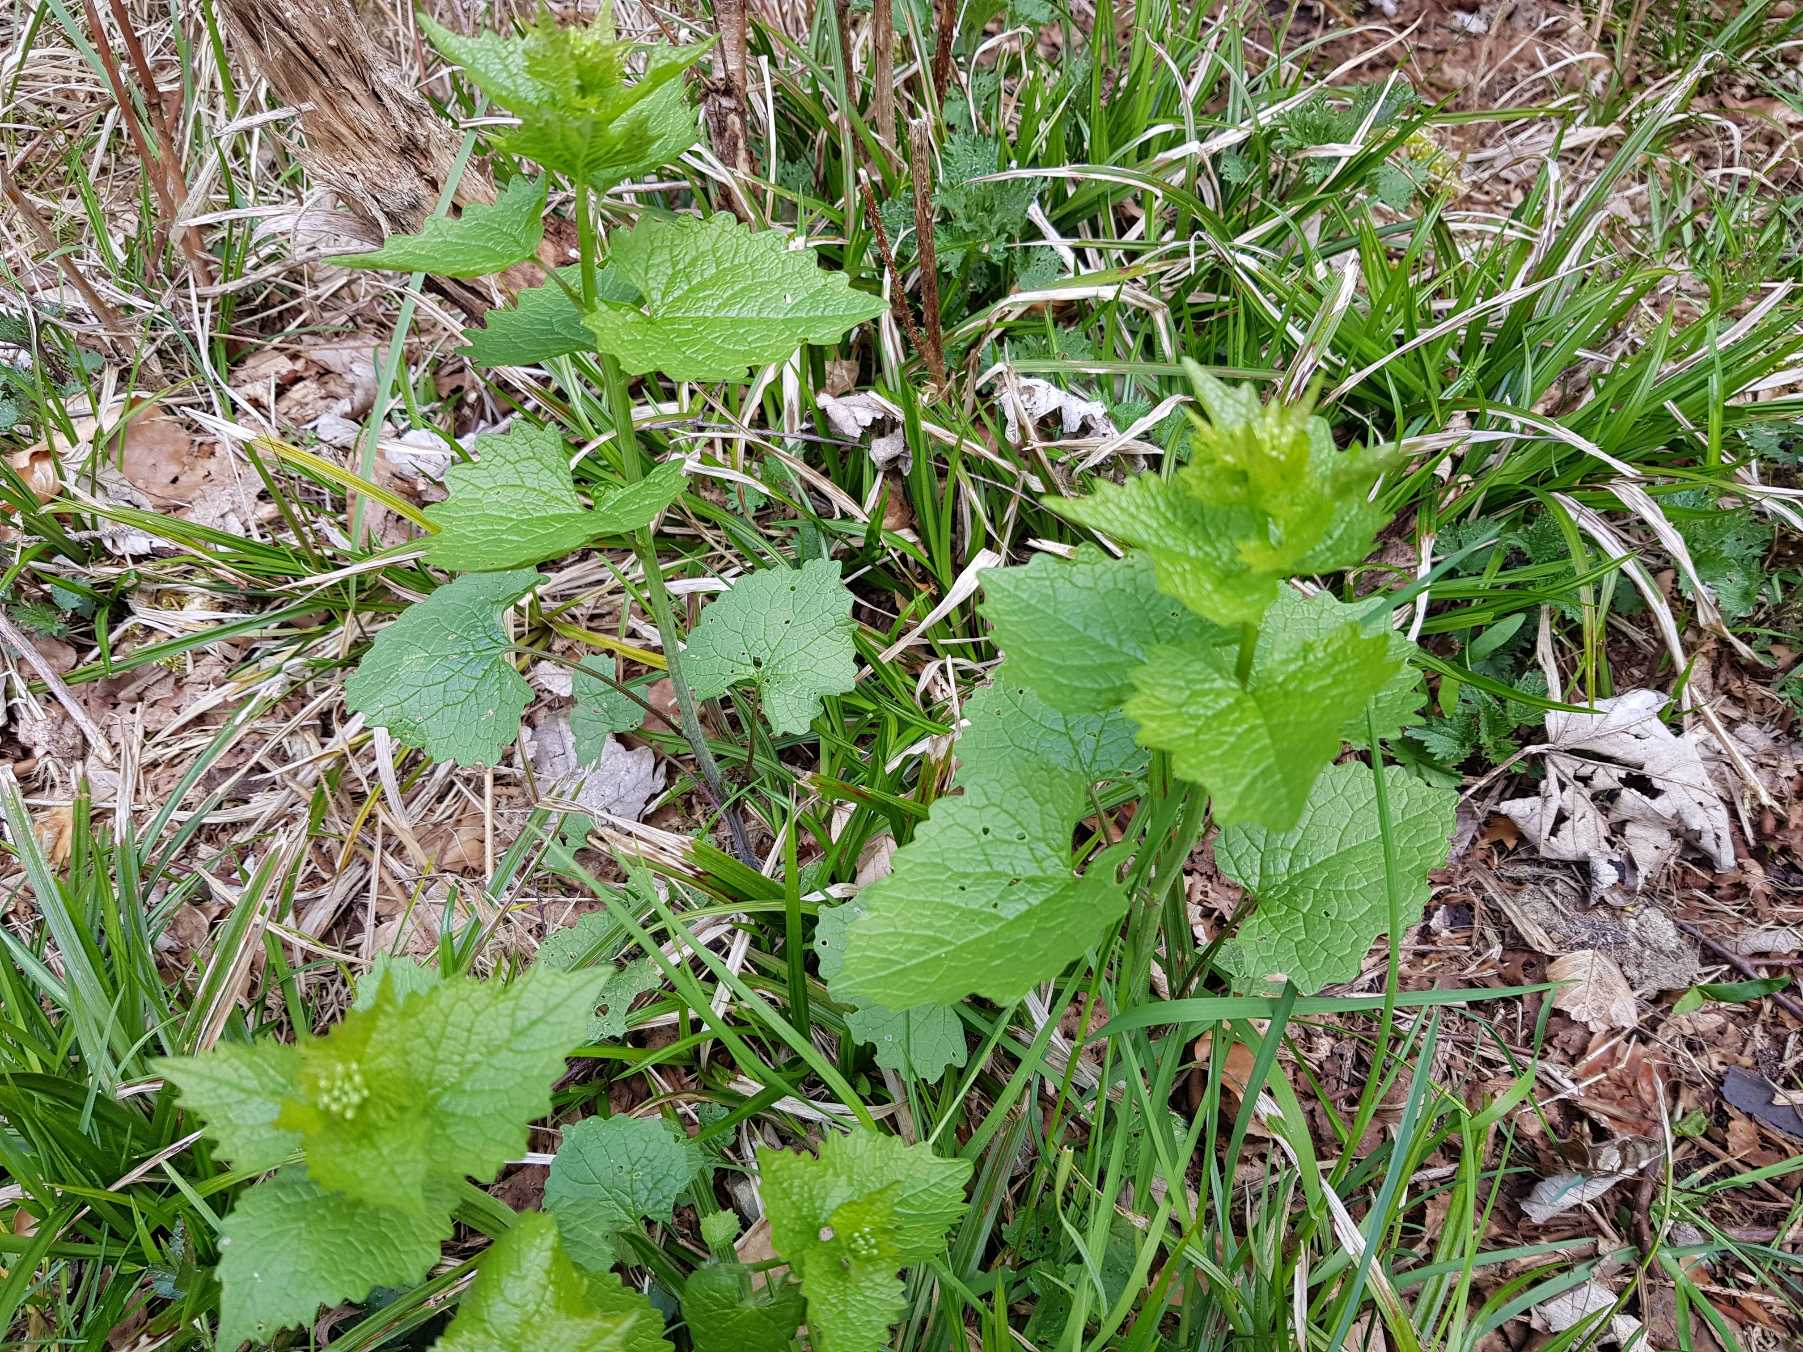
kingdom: Plantae
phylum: Tracheophyta
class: Magnoliopsida
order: Brassicales
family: Brassicaceae
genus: Alliaria
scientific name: Alliaria petiolata
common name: Løgkarse
